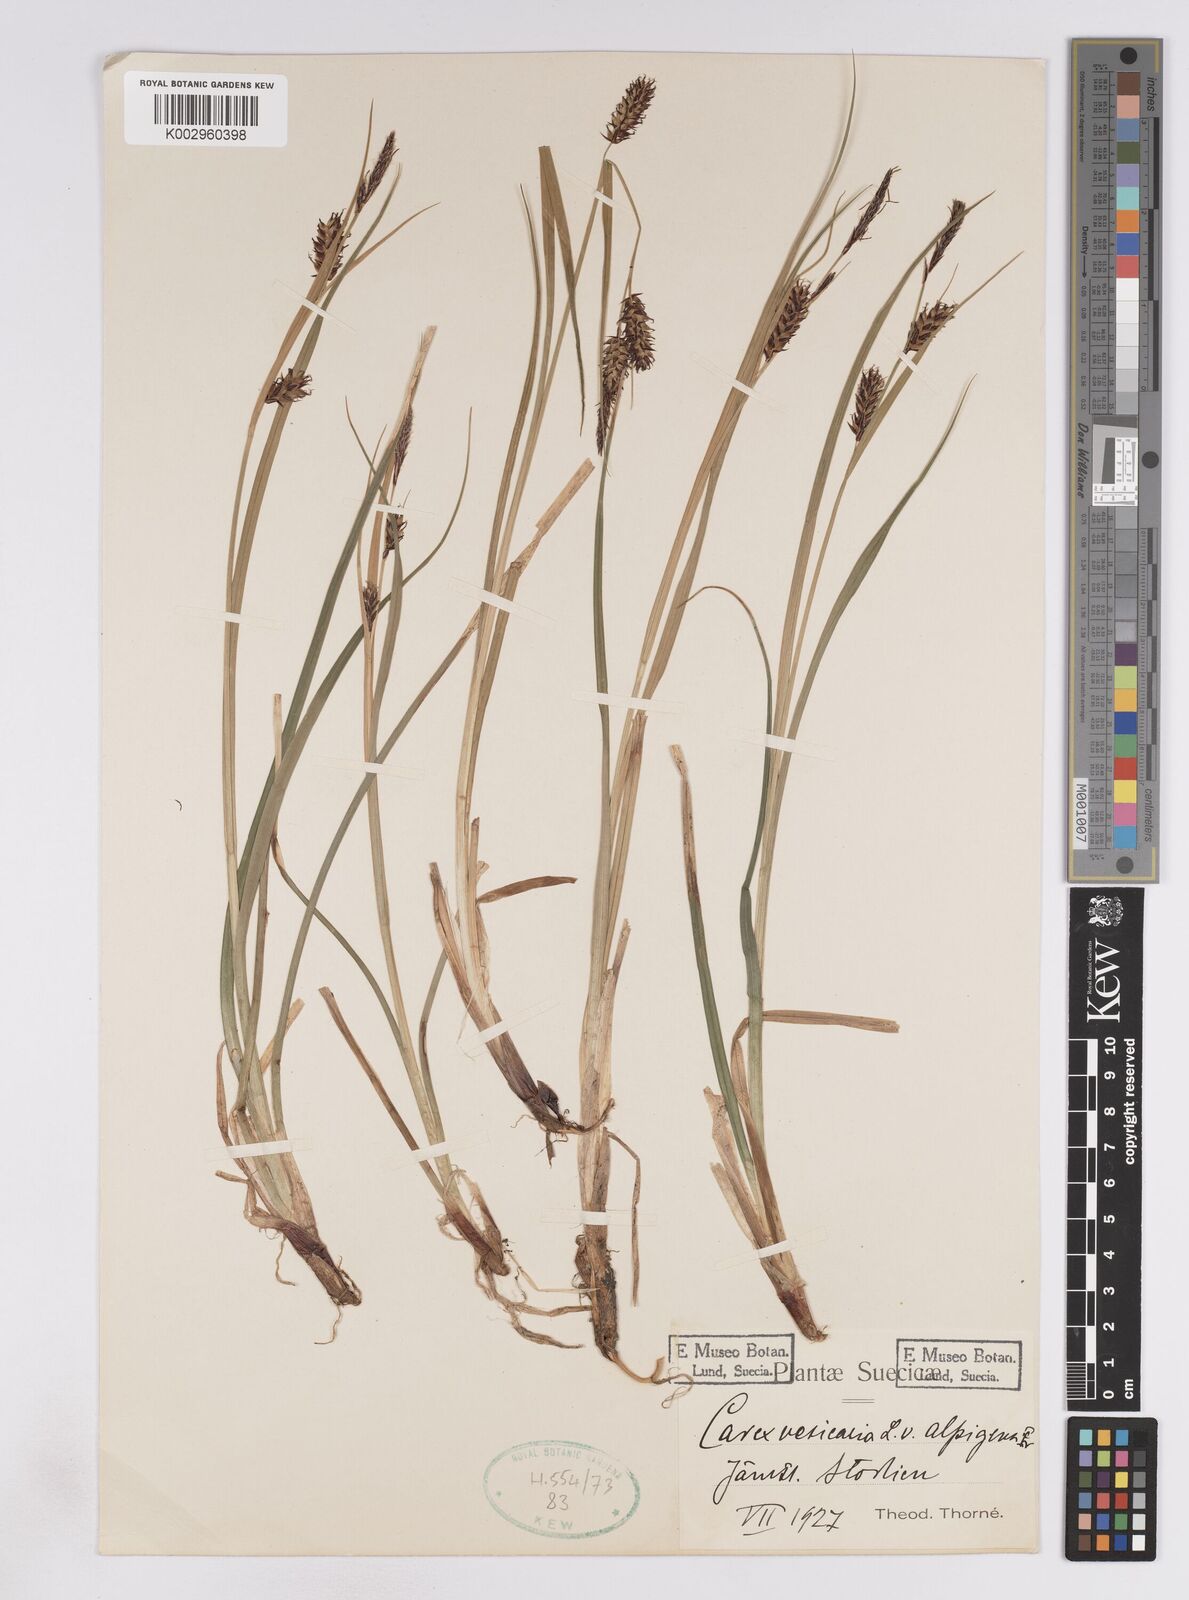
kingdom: Plantae
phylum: Tracheophyta
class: Liliopsida
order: Poales
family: Cyperaceae
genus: Carex
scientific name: Carex rostrata
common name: Bottle sedge
